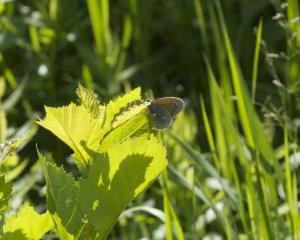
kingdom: Animalia
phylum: Arthropoda
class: Insecta
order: Lepidoptera
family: Nymphalidae
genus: Coenonympha
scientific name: Coenonympha tullia
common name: Large Heath
